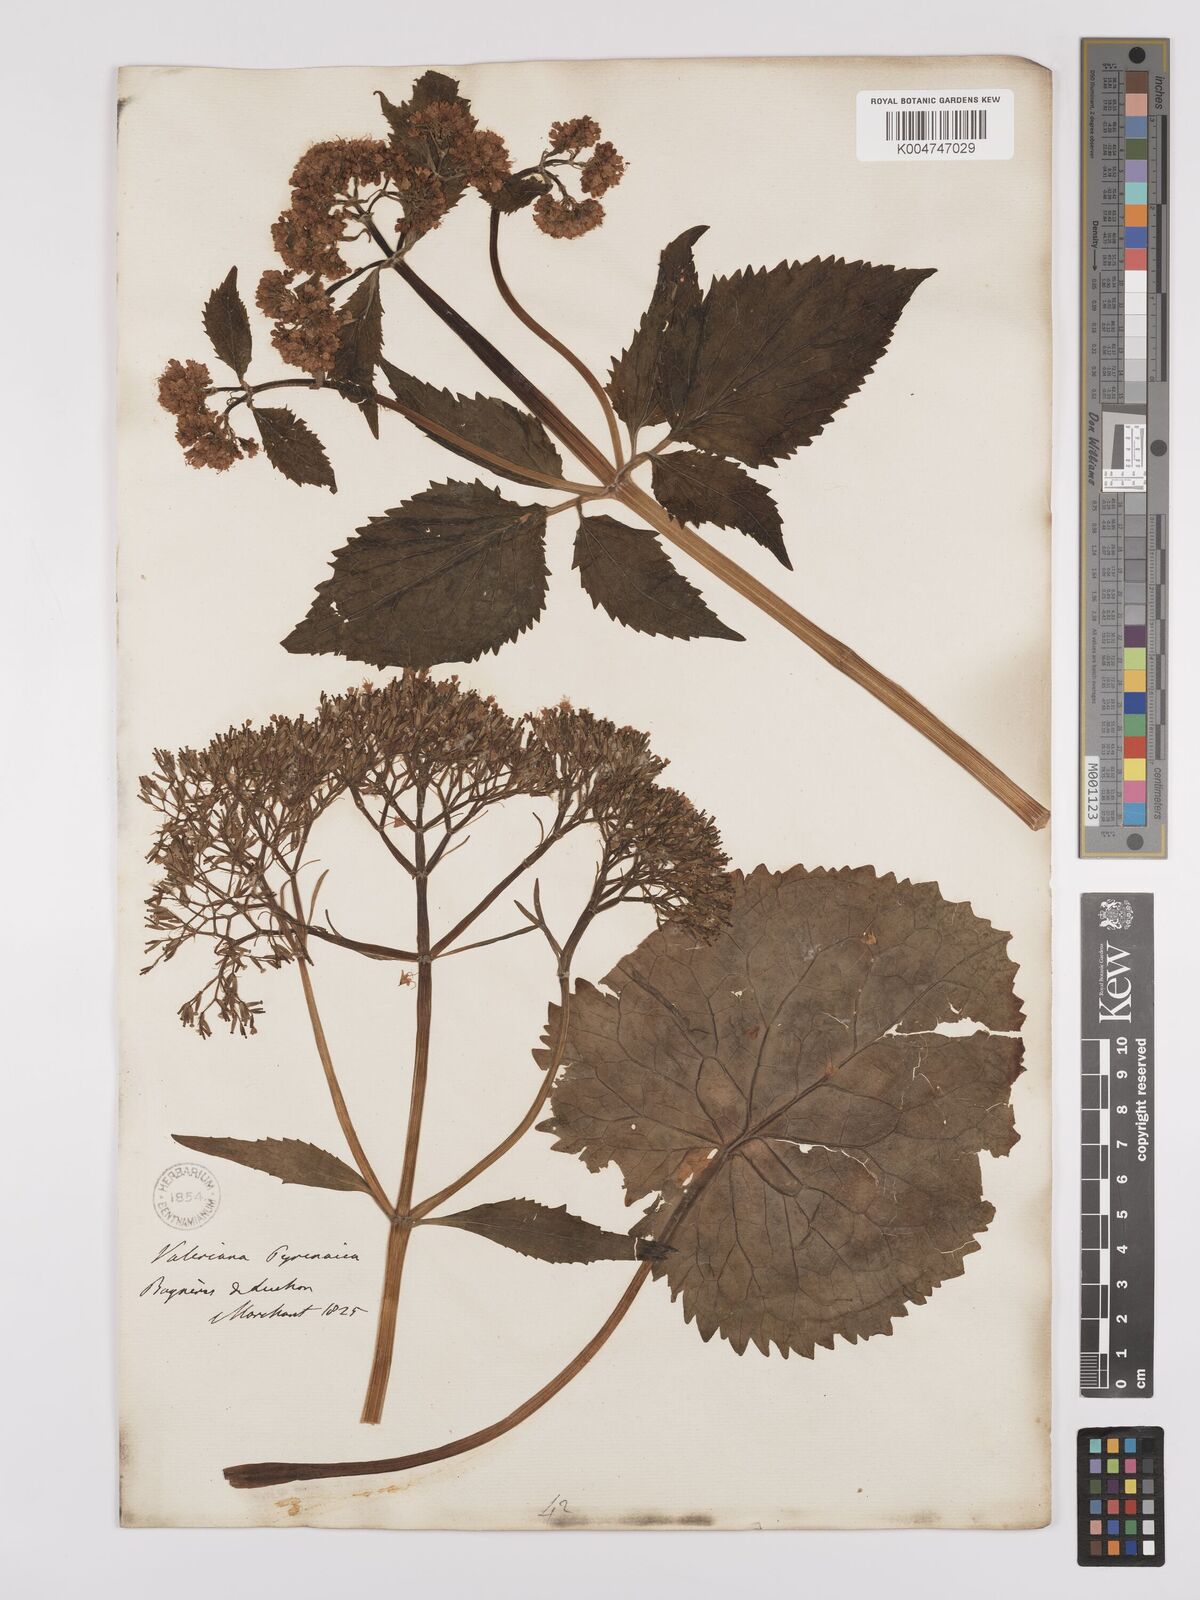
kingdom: Plantae
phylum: Tracheophyta
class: Magnoliopsida
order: Dipsacales
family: Caprifoliaceae
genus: Valeriana
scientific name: Valeriana pyrenaica
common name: Pyrenean valerian
